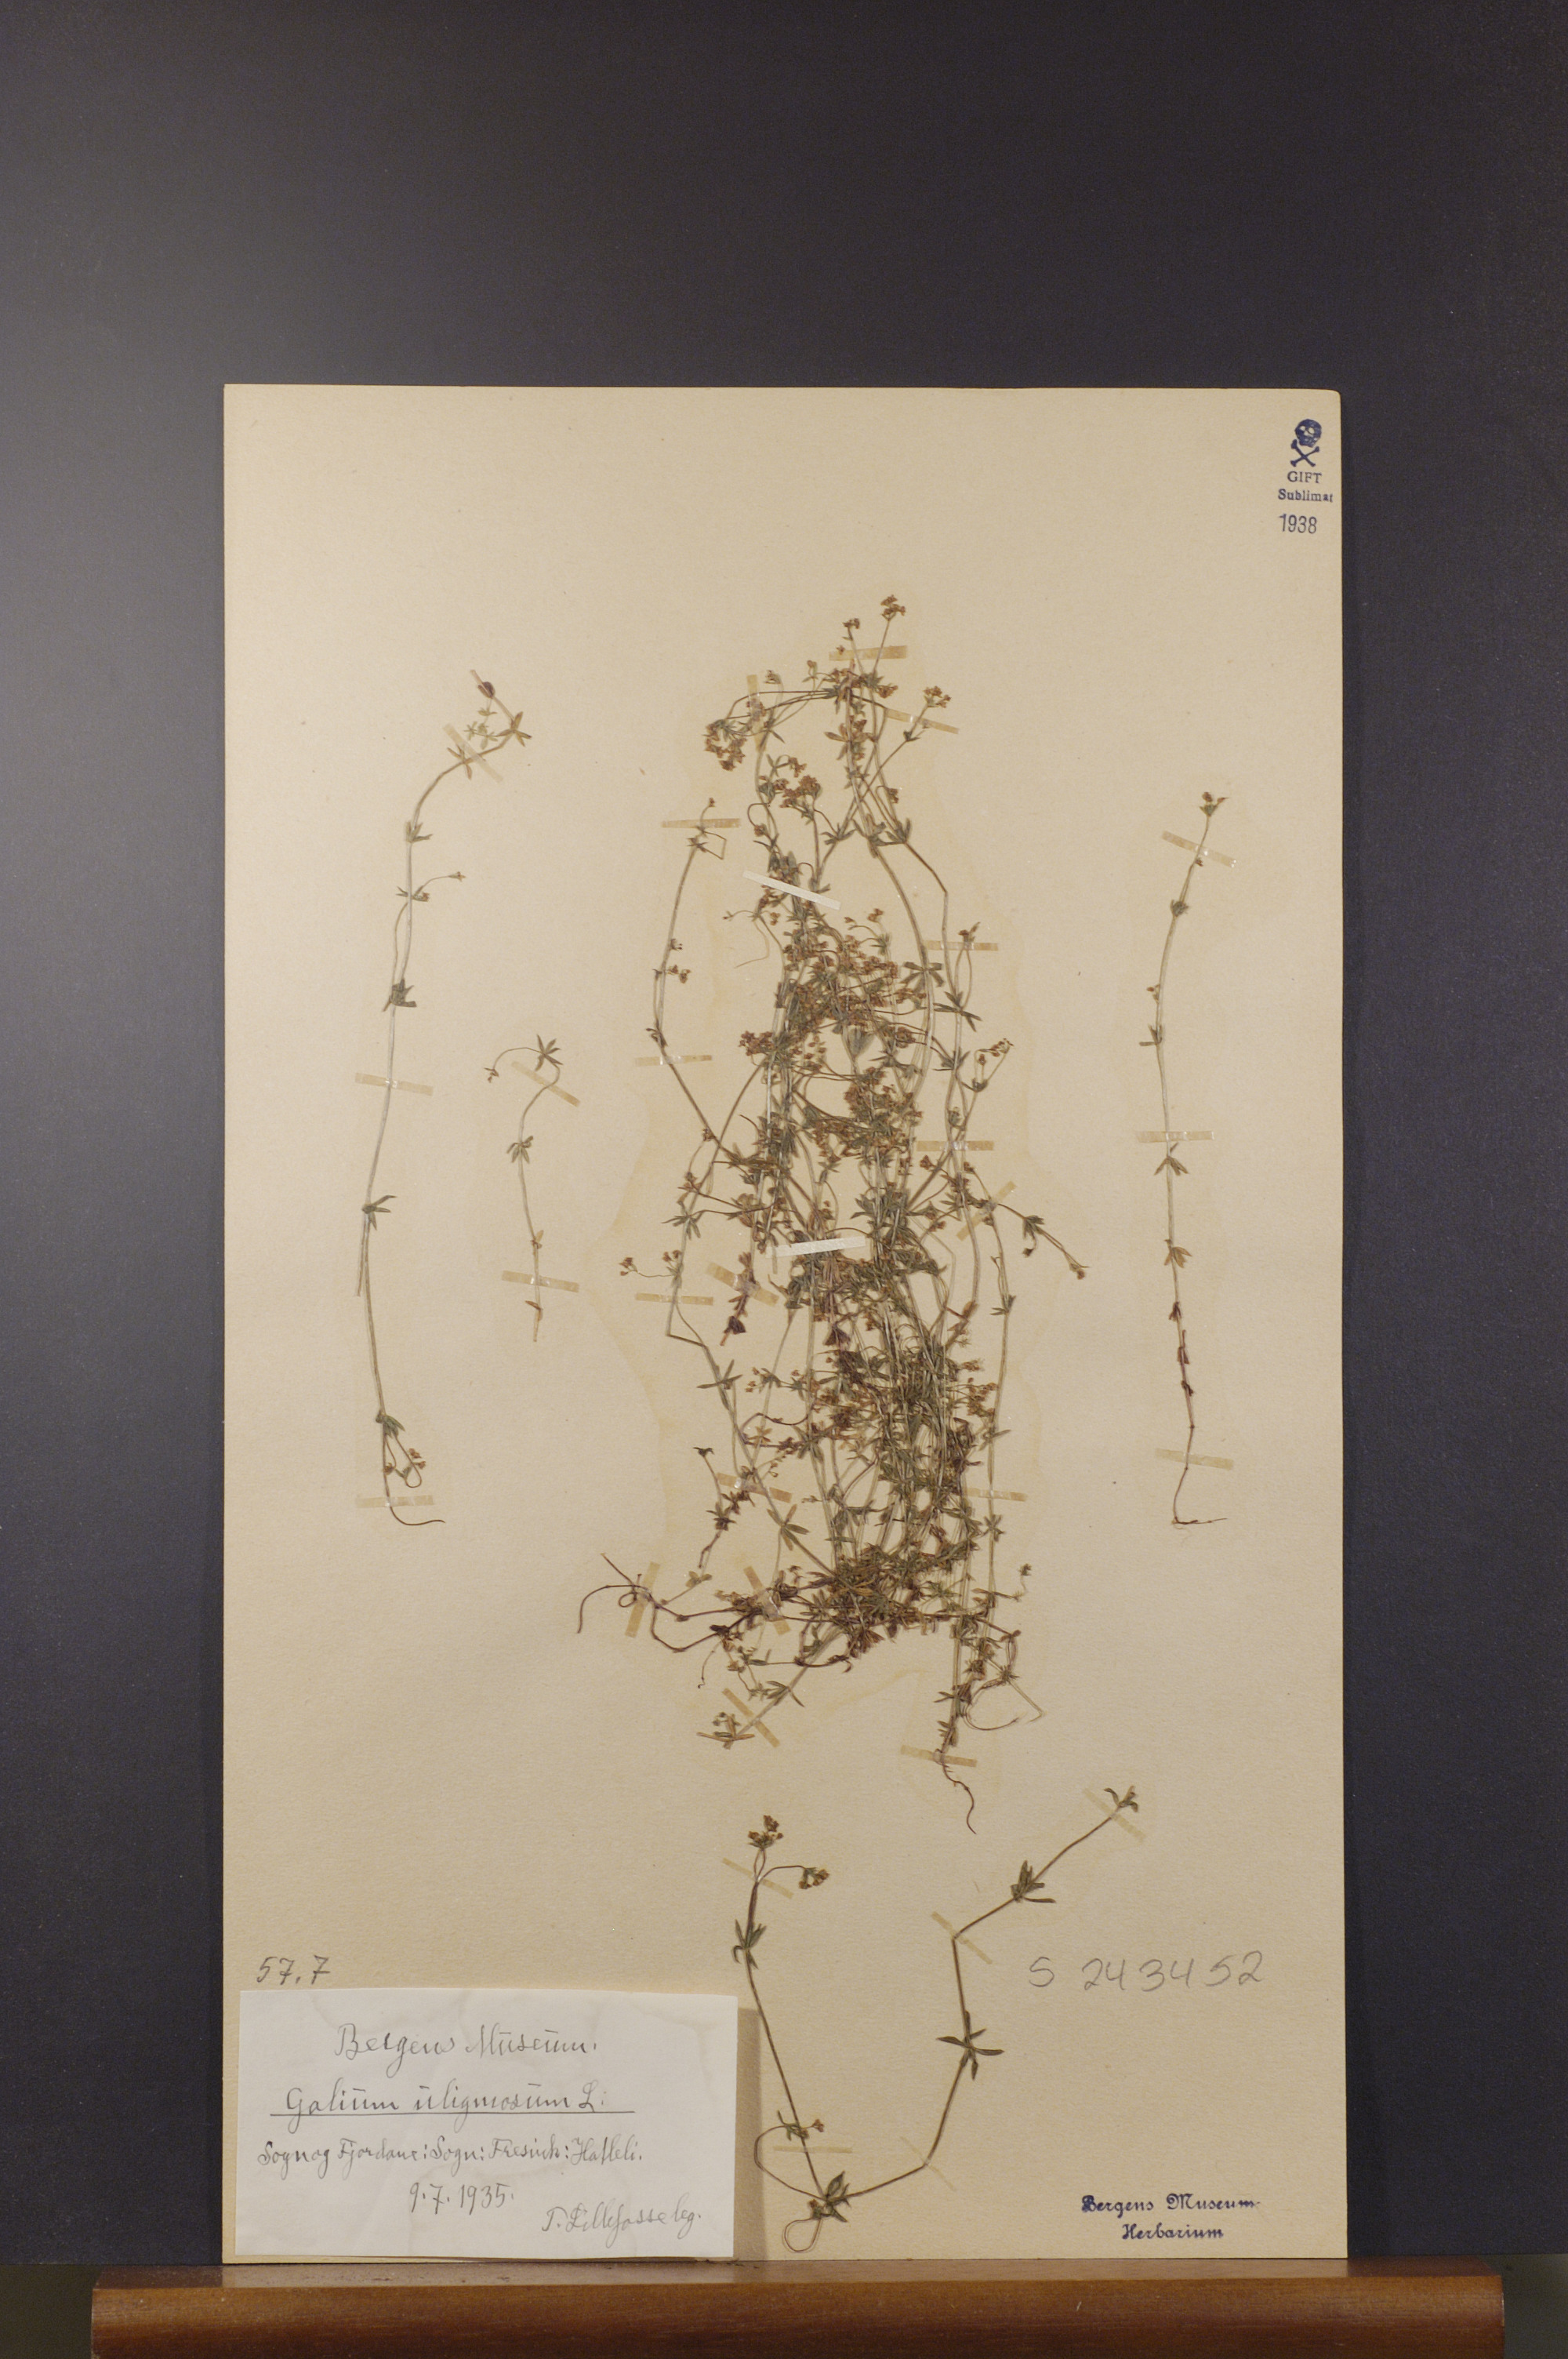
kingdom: Plantae
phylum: Tracheophyta
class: Magnoliopsida
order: Gentianales
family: Rubiaceae
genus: Galium
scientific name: Galium uliginosum
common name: Fen bedstraw
